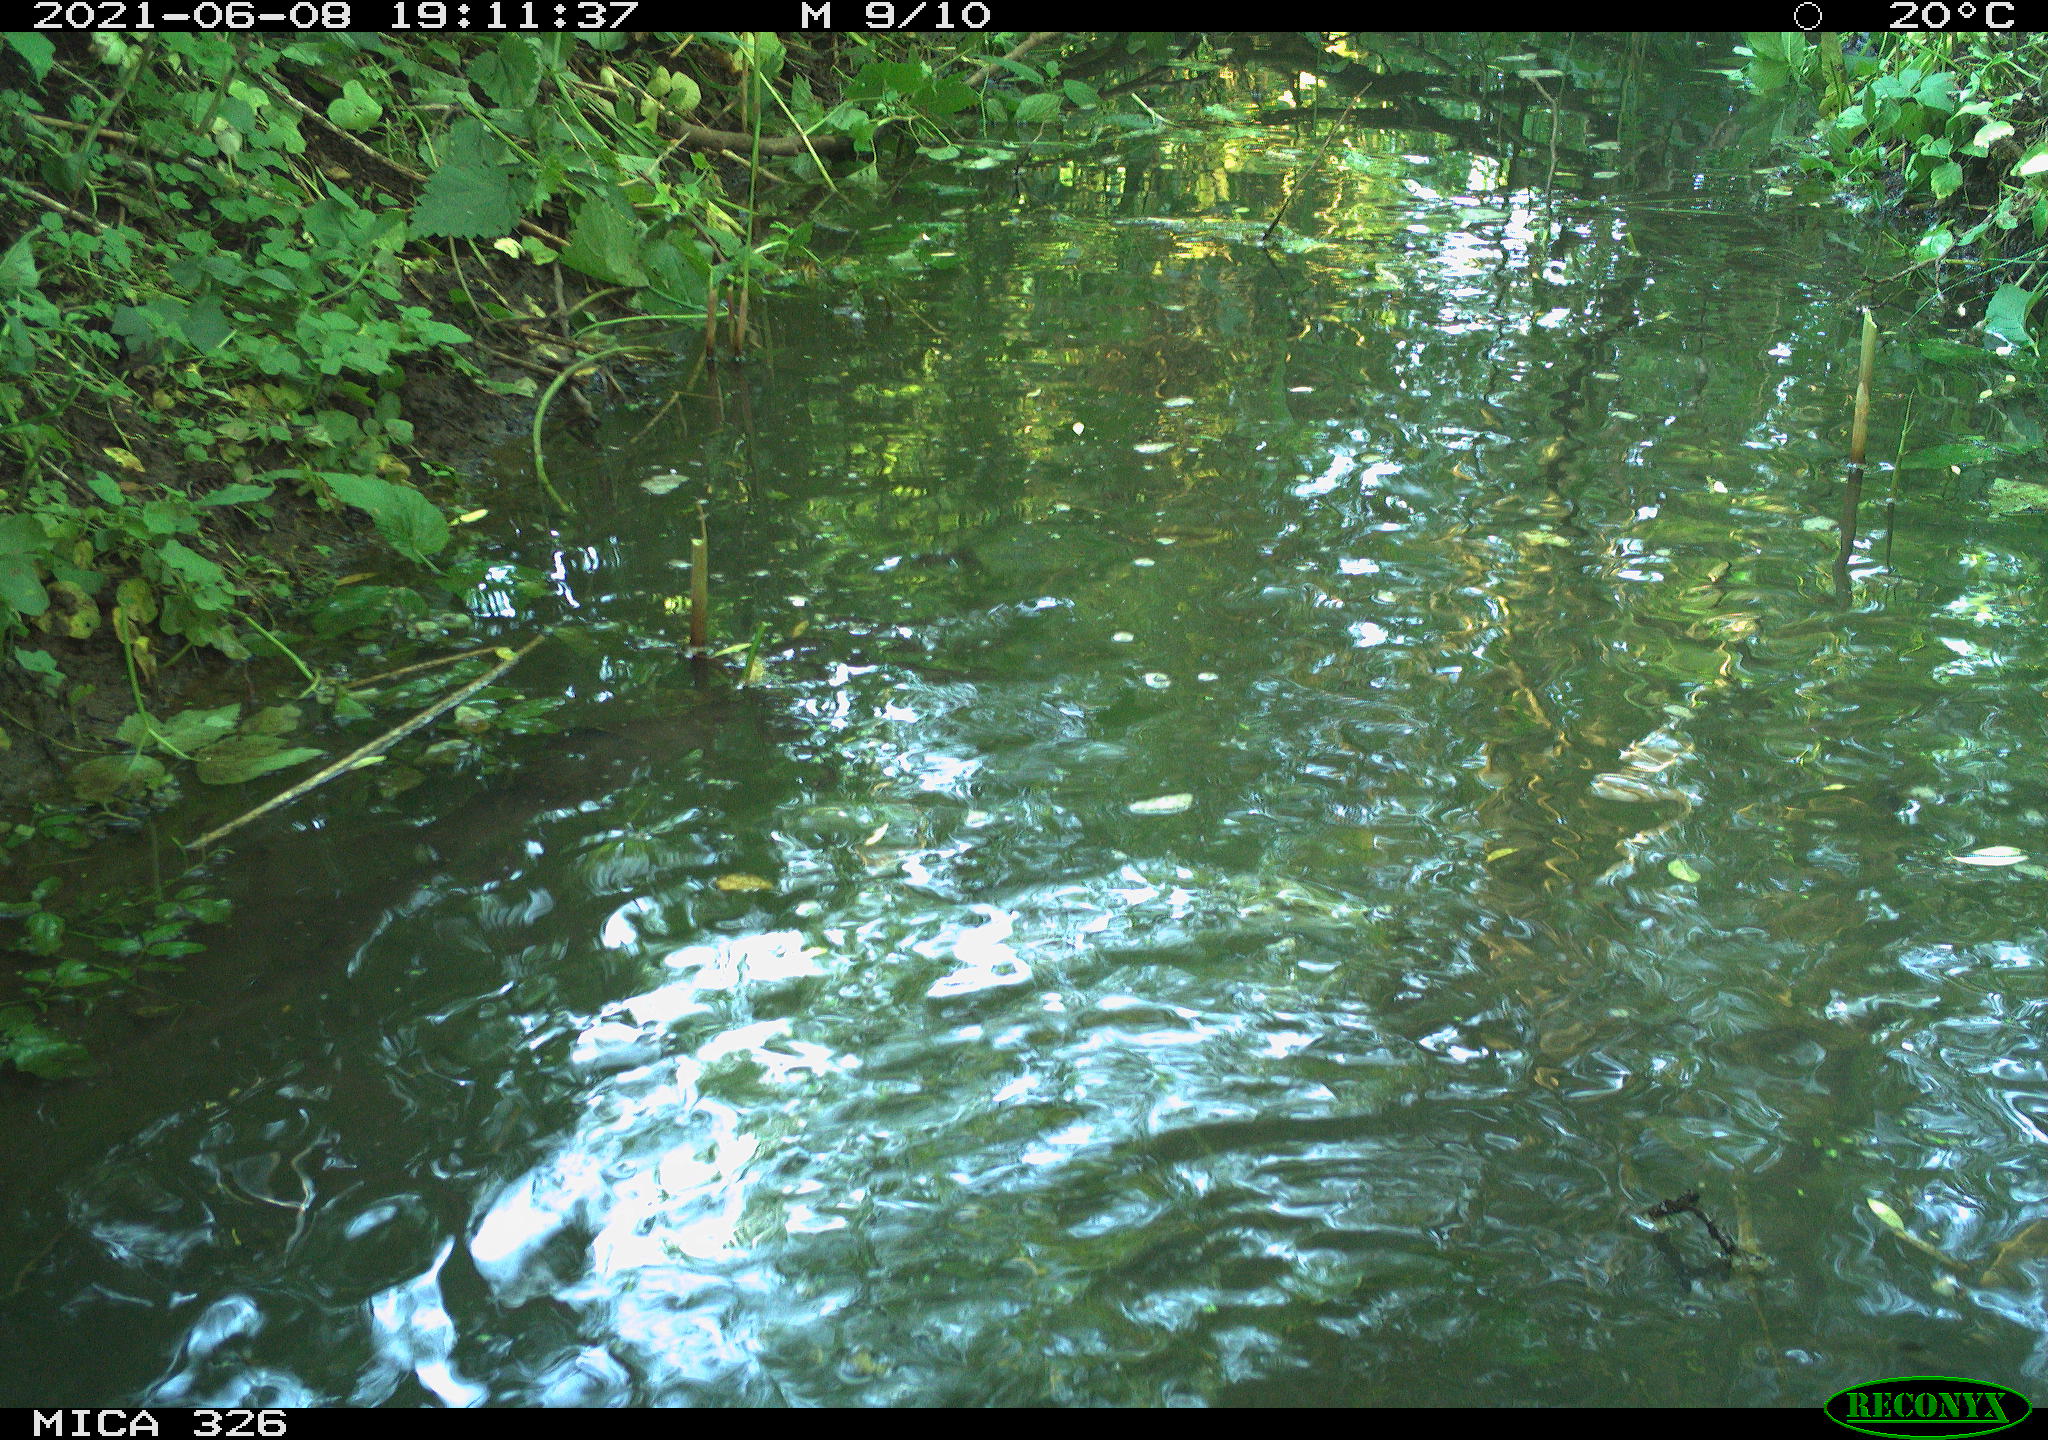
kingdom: Animalia
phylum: Chordata
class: Aves
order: Anseriformes
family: Anatidae
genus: Anas
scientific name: Anas platyrhynchos
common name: Mallard
